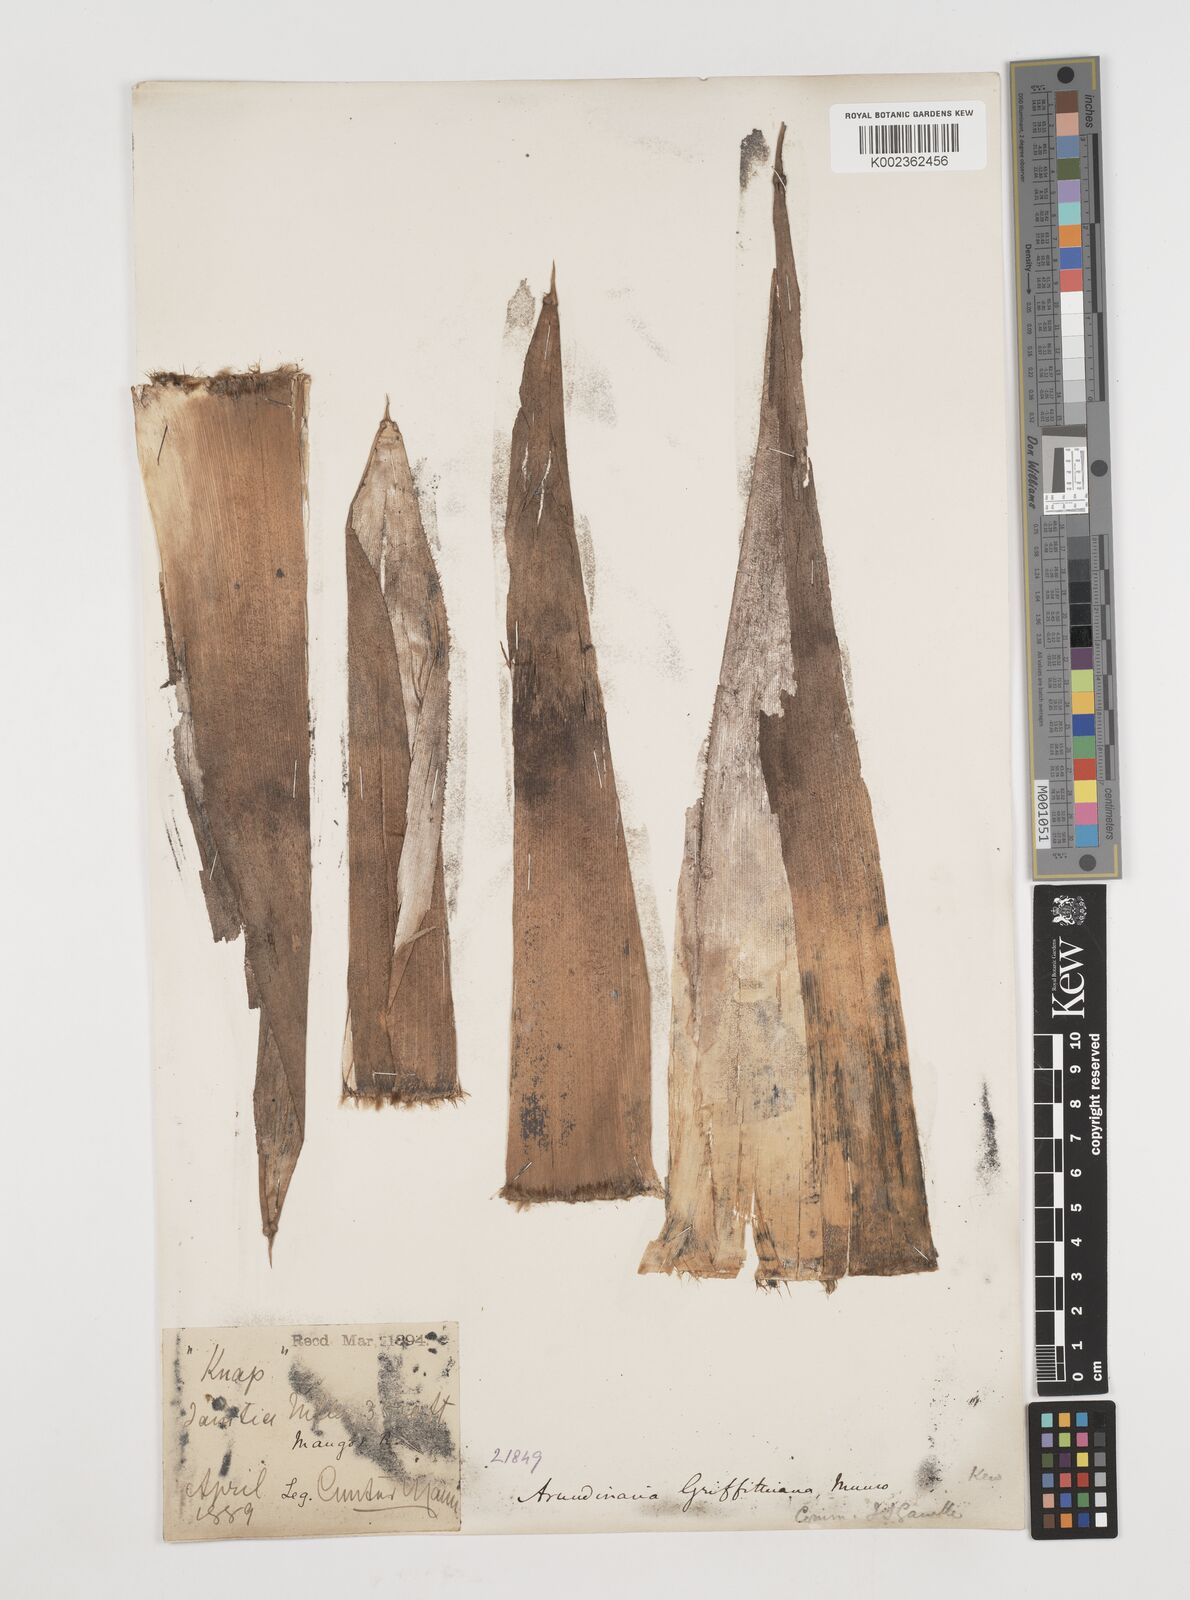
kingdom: Plantae
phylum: Tracheophyta
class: Liliopsida
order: Poales
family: Poaceae
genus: Chimonocalamus
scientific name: Chimonocalamus griffithianus
